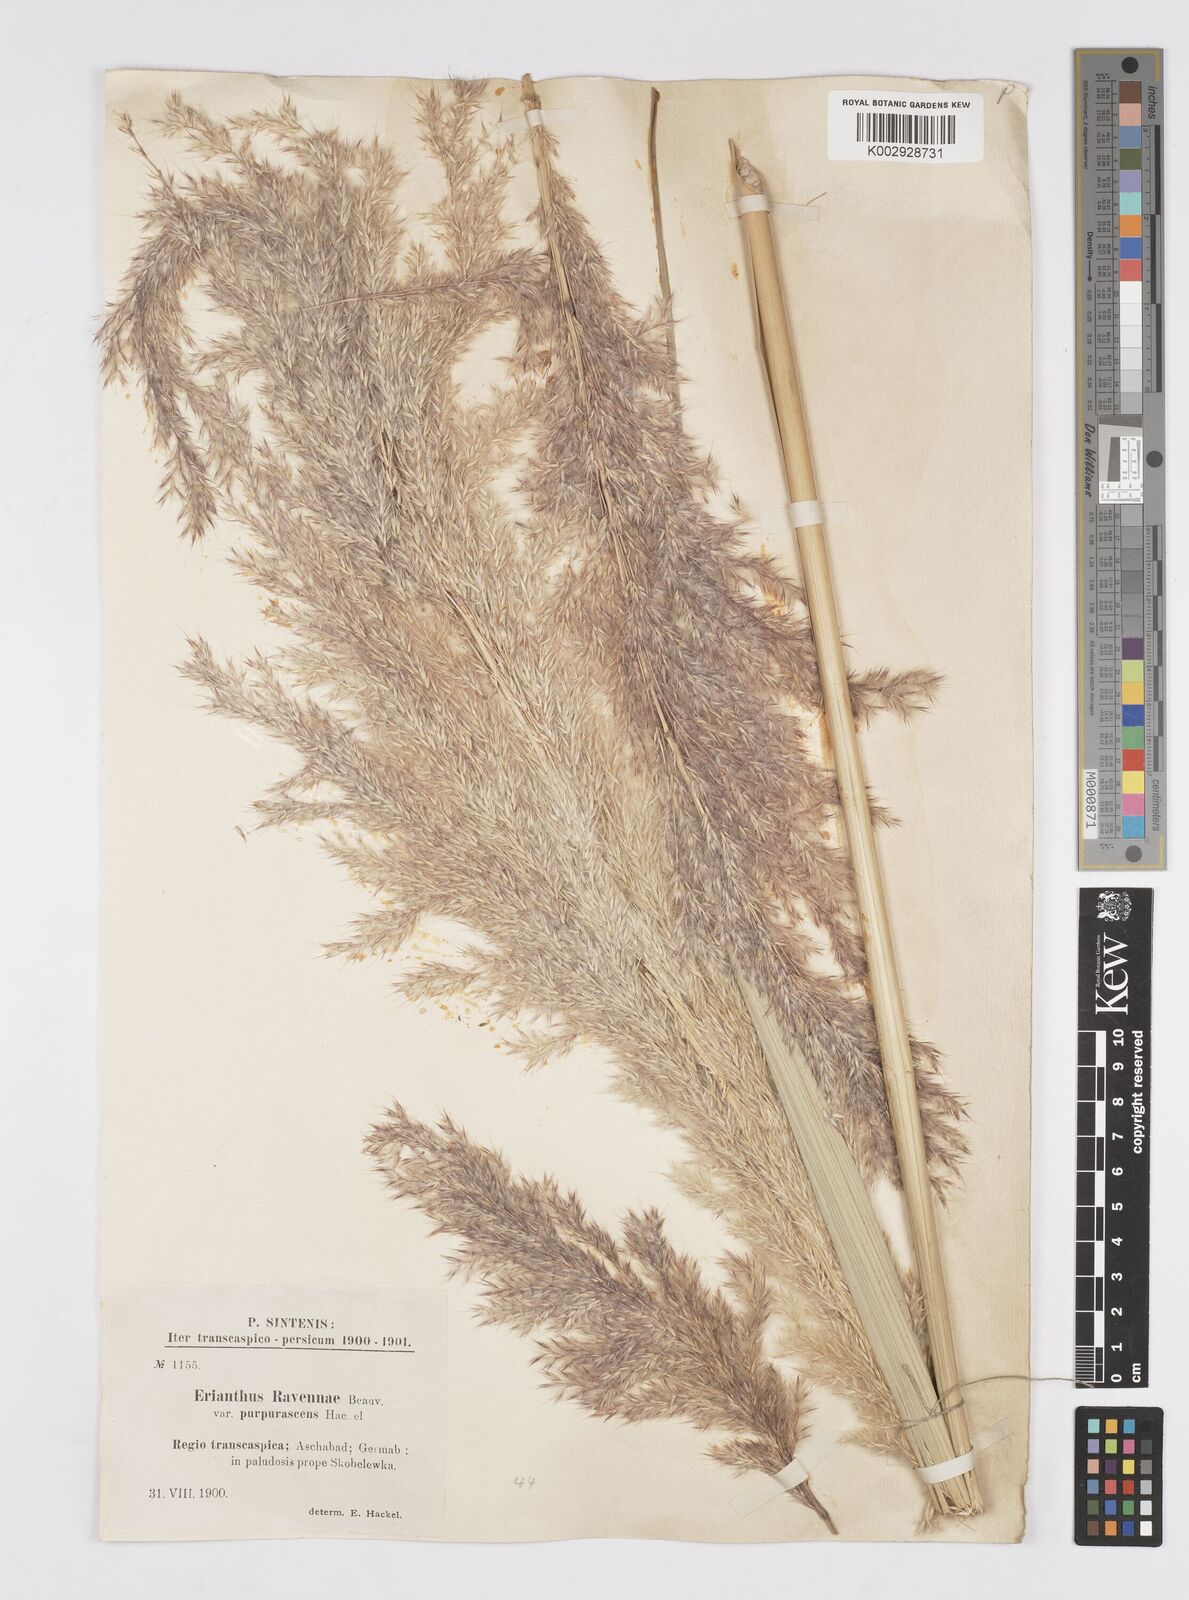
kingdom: Plantae
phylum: Tracheophyta
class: Liliopsida
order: Poales
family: Poaceae
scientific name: Poaceae
